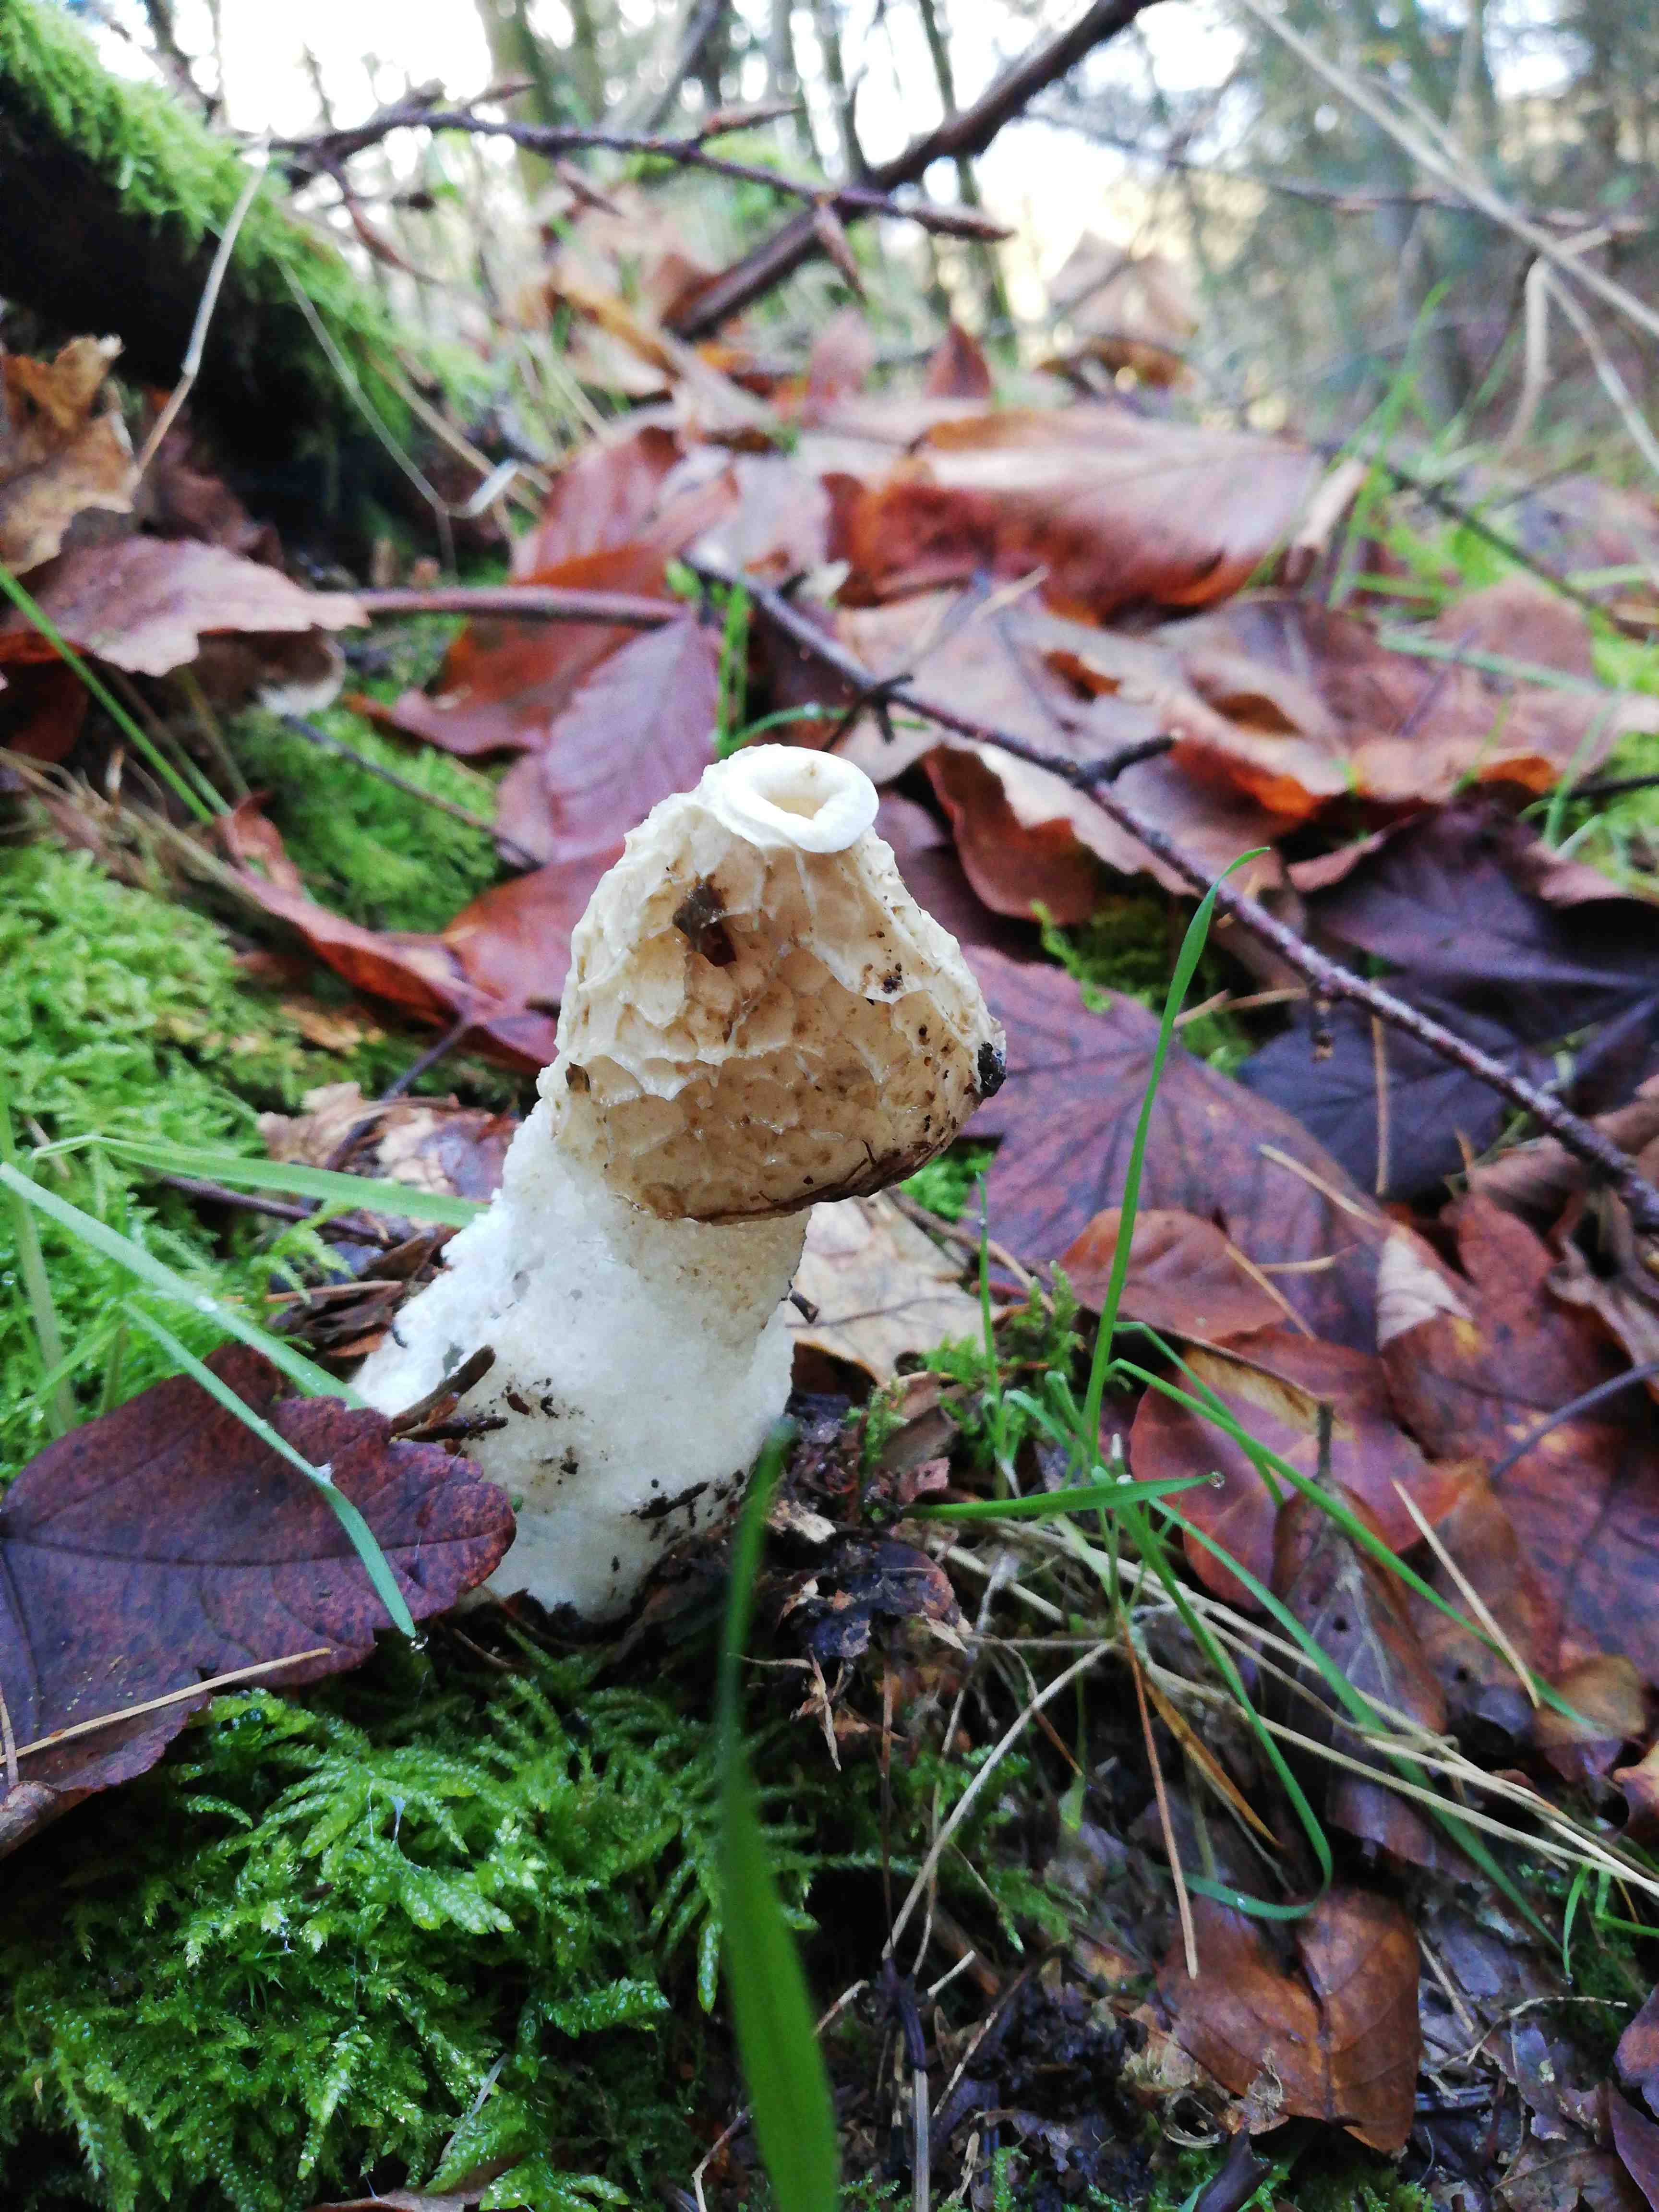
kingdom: Fungi
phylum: Basidiomycota
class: Agaricomycetes
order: Phallales
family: Phallaceae
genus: Phallus
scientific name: Phallus impudicus
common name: almindelig stinksvamp
